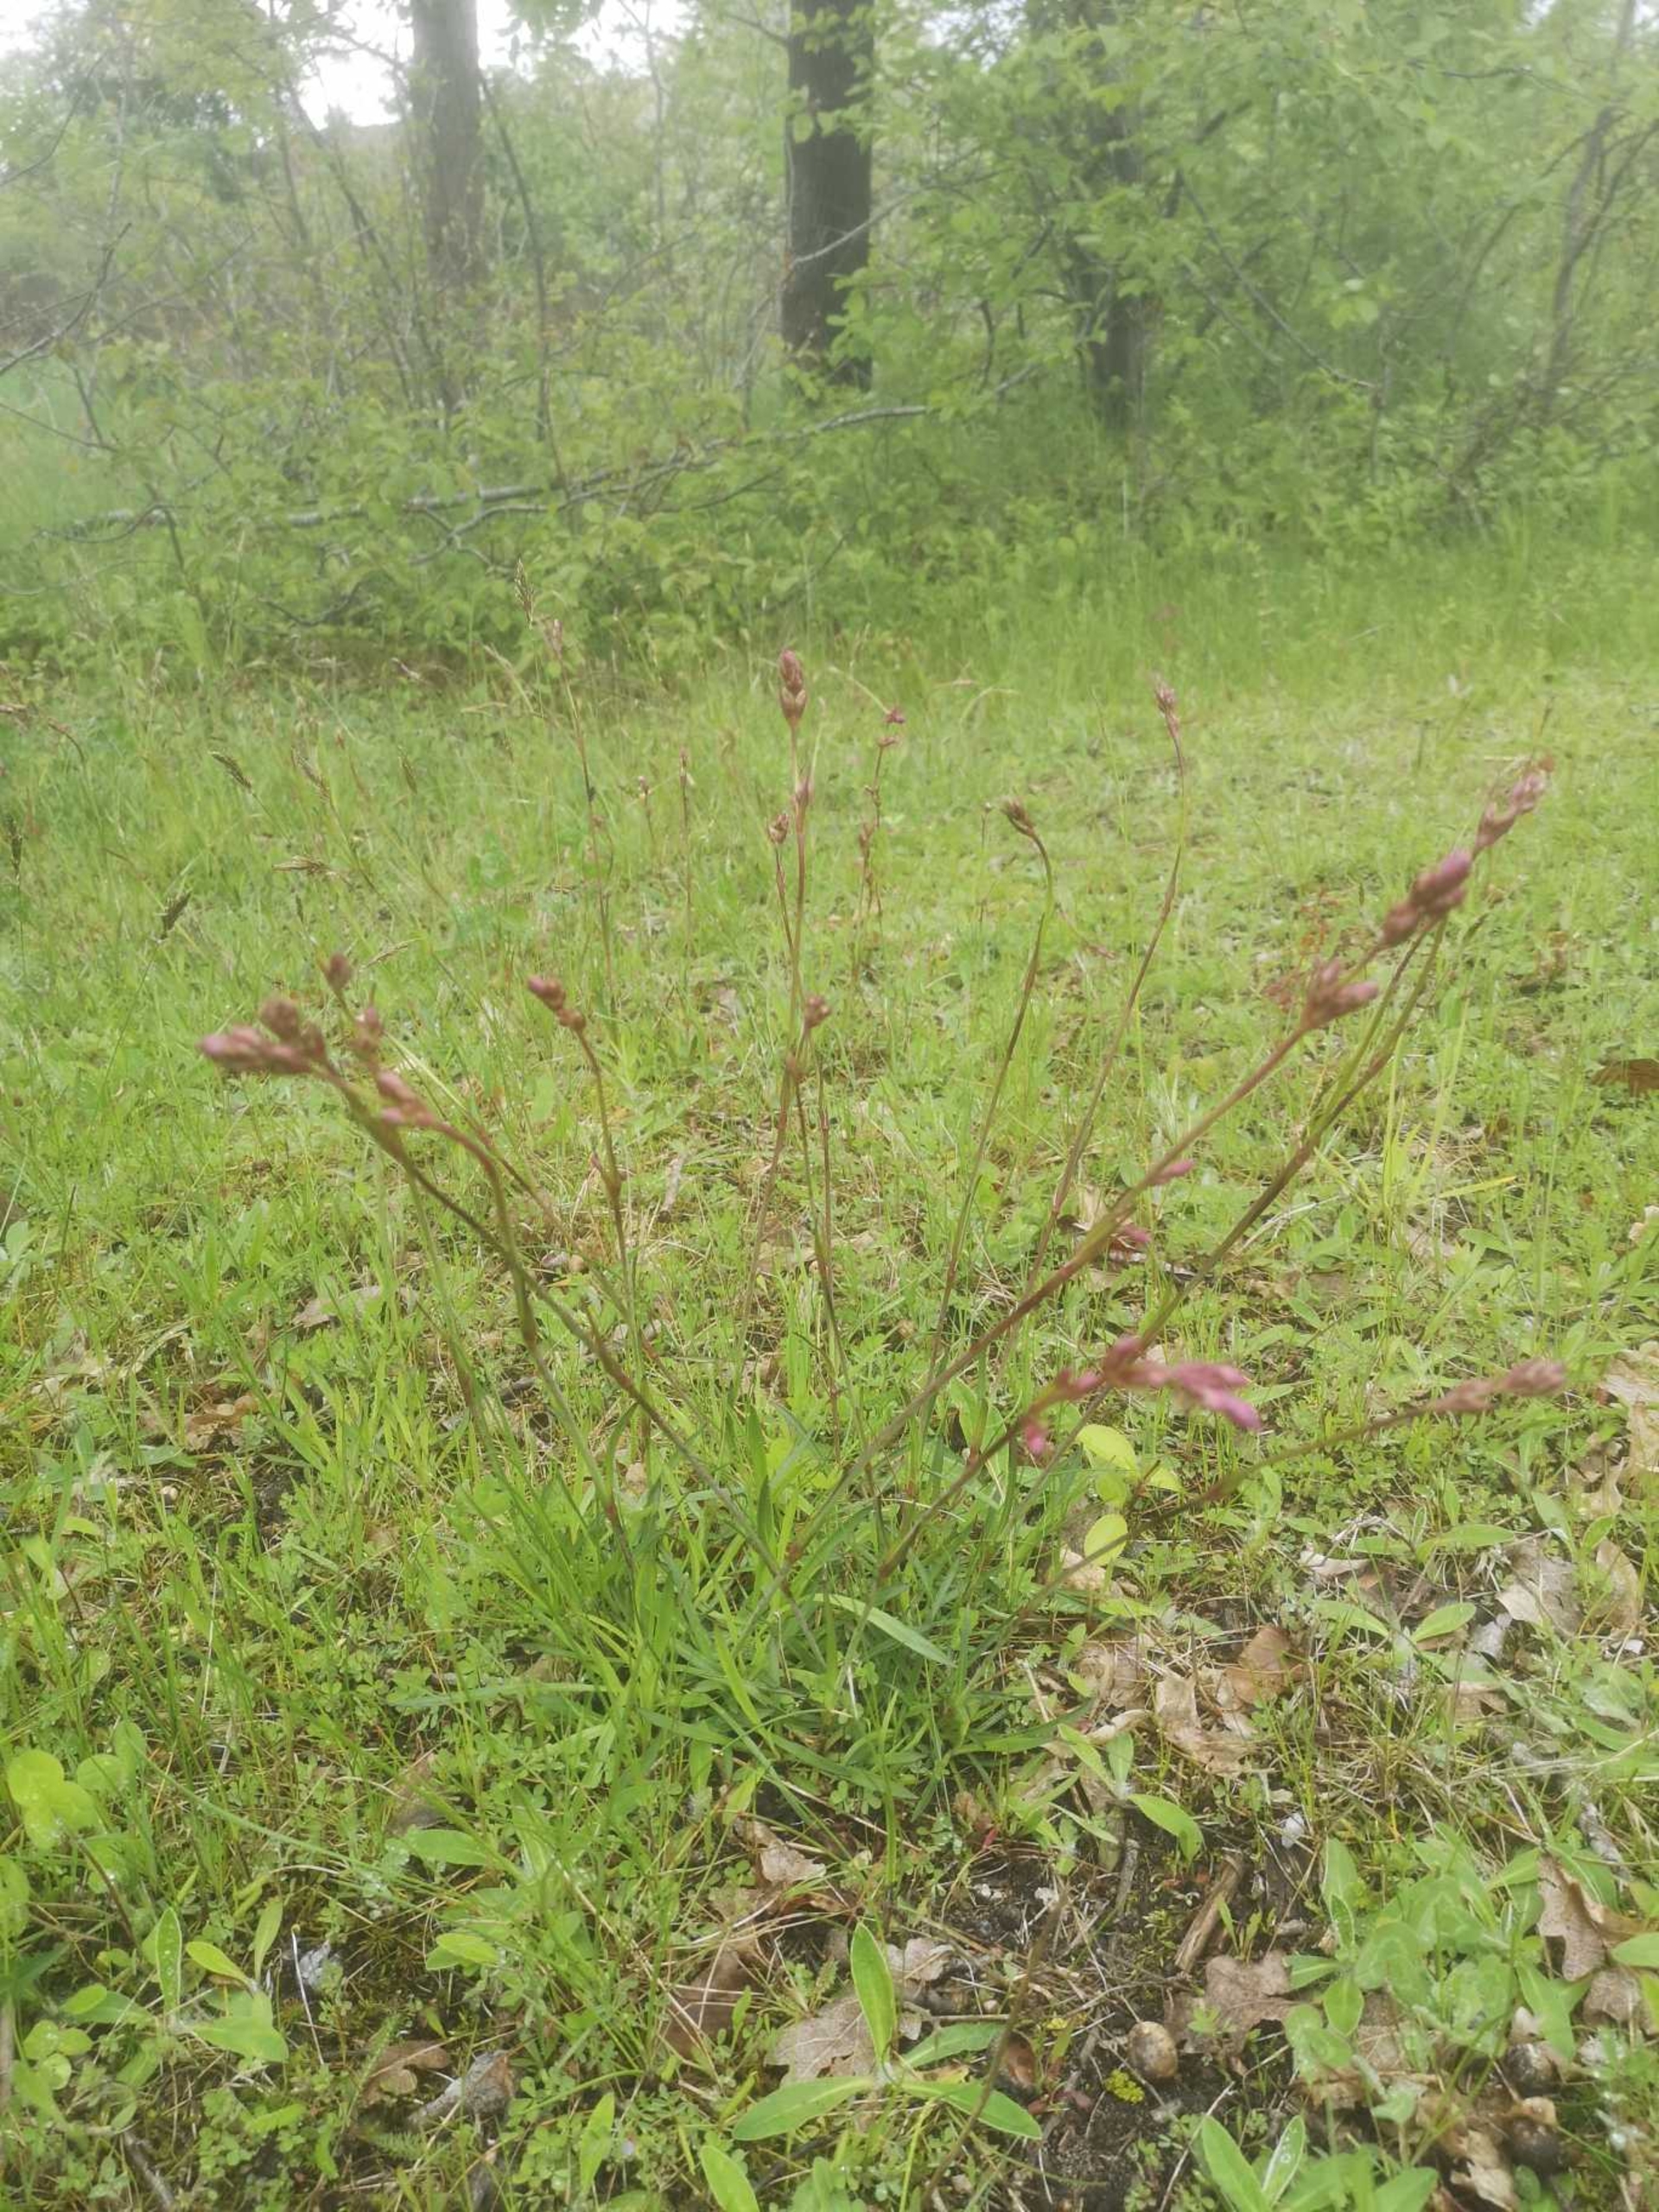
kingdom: Plantae
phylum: Tracheophyta
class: Magnoliopsida
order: Caryophyllales
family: Caryophyllaceae
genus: Viscaria
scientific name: Viscaria vulgaris
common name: Tjærenellike
